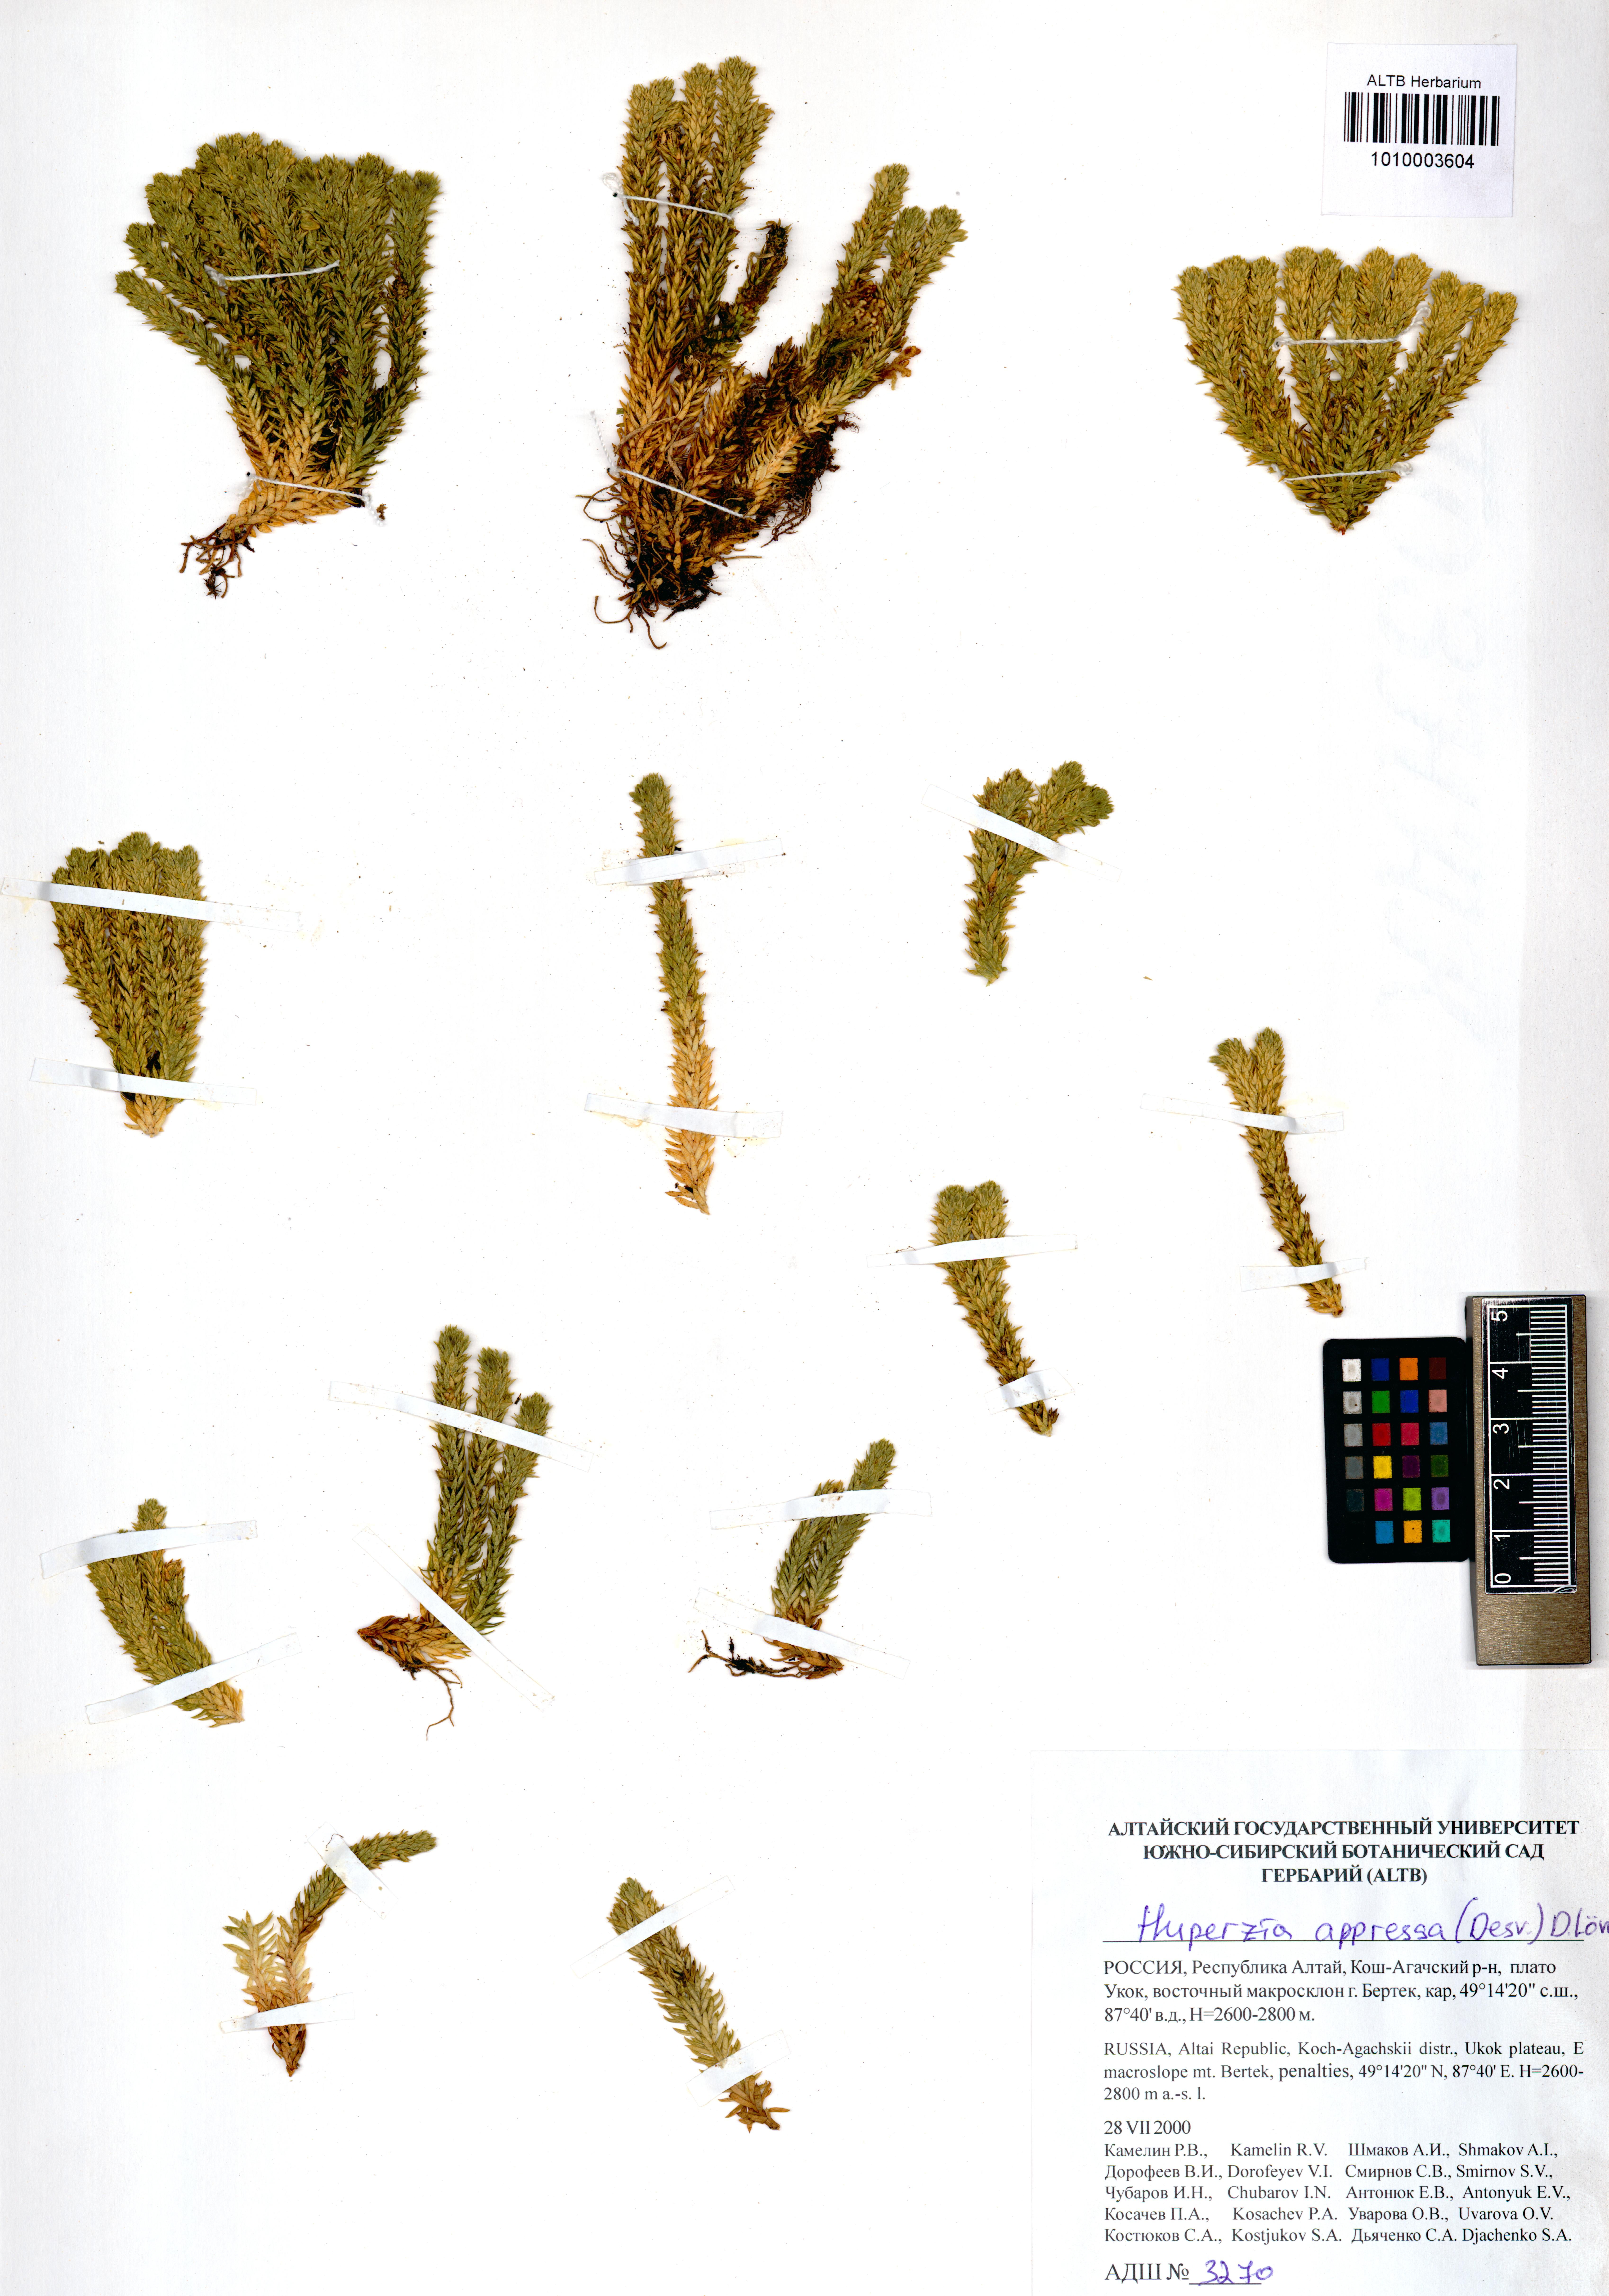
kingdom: Plantae
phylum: Tracheophyta
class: Lycopodiopsida
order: Lycopodiales
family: Lycopodiaceae
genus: Huperzia
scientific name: Huperzia selago
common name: Northern firmoss
